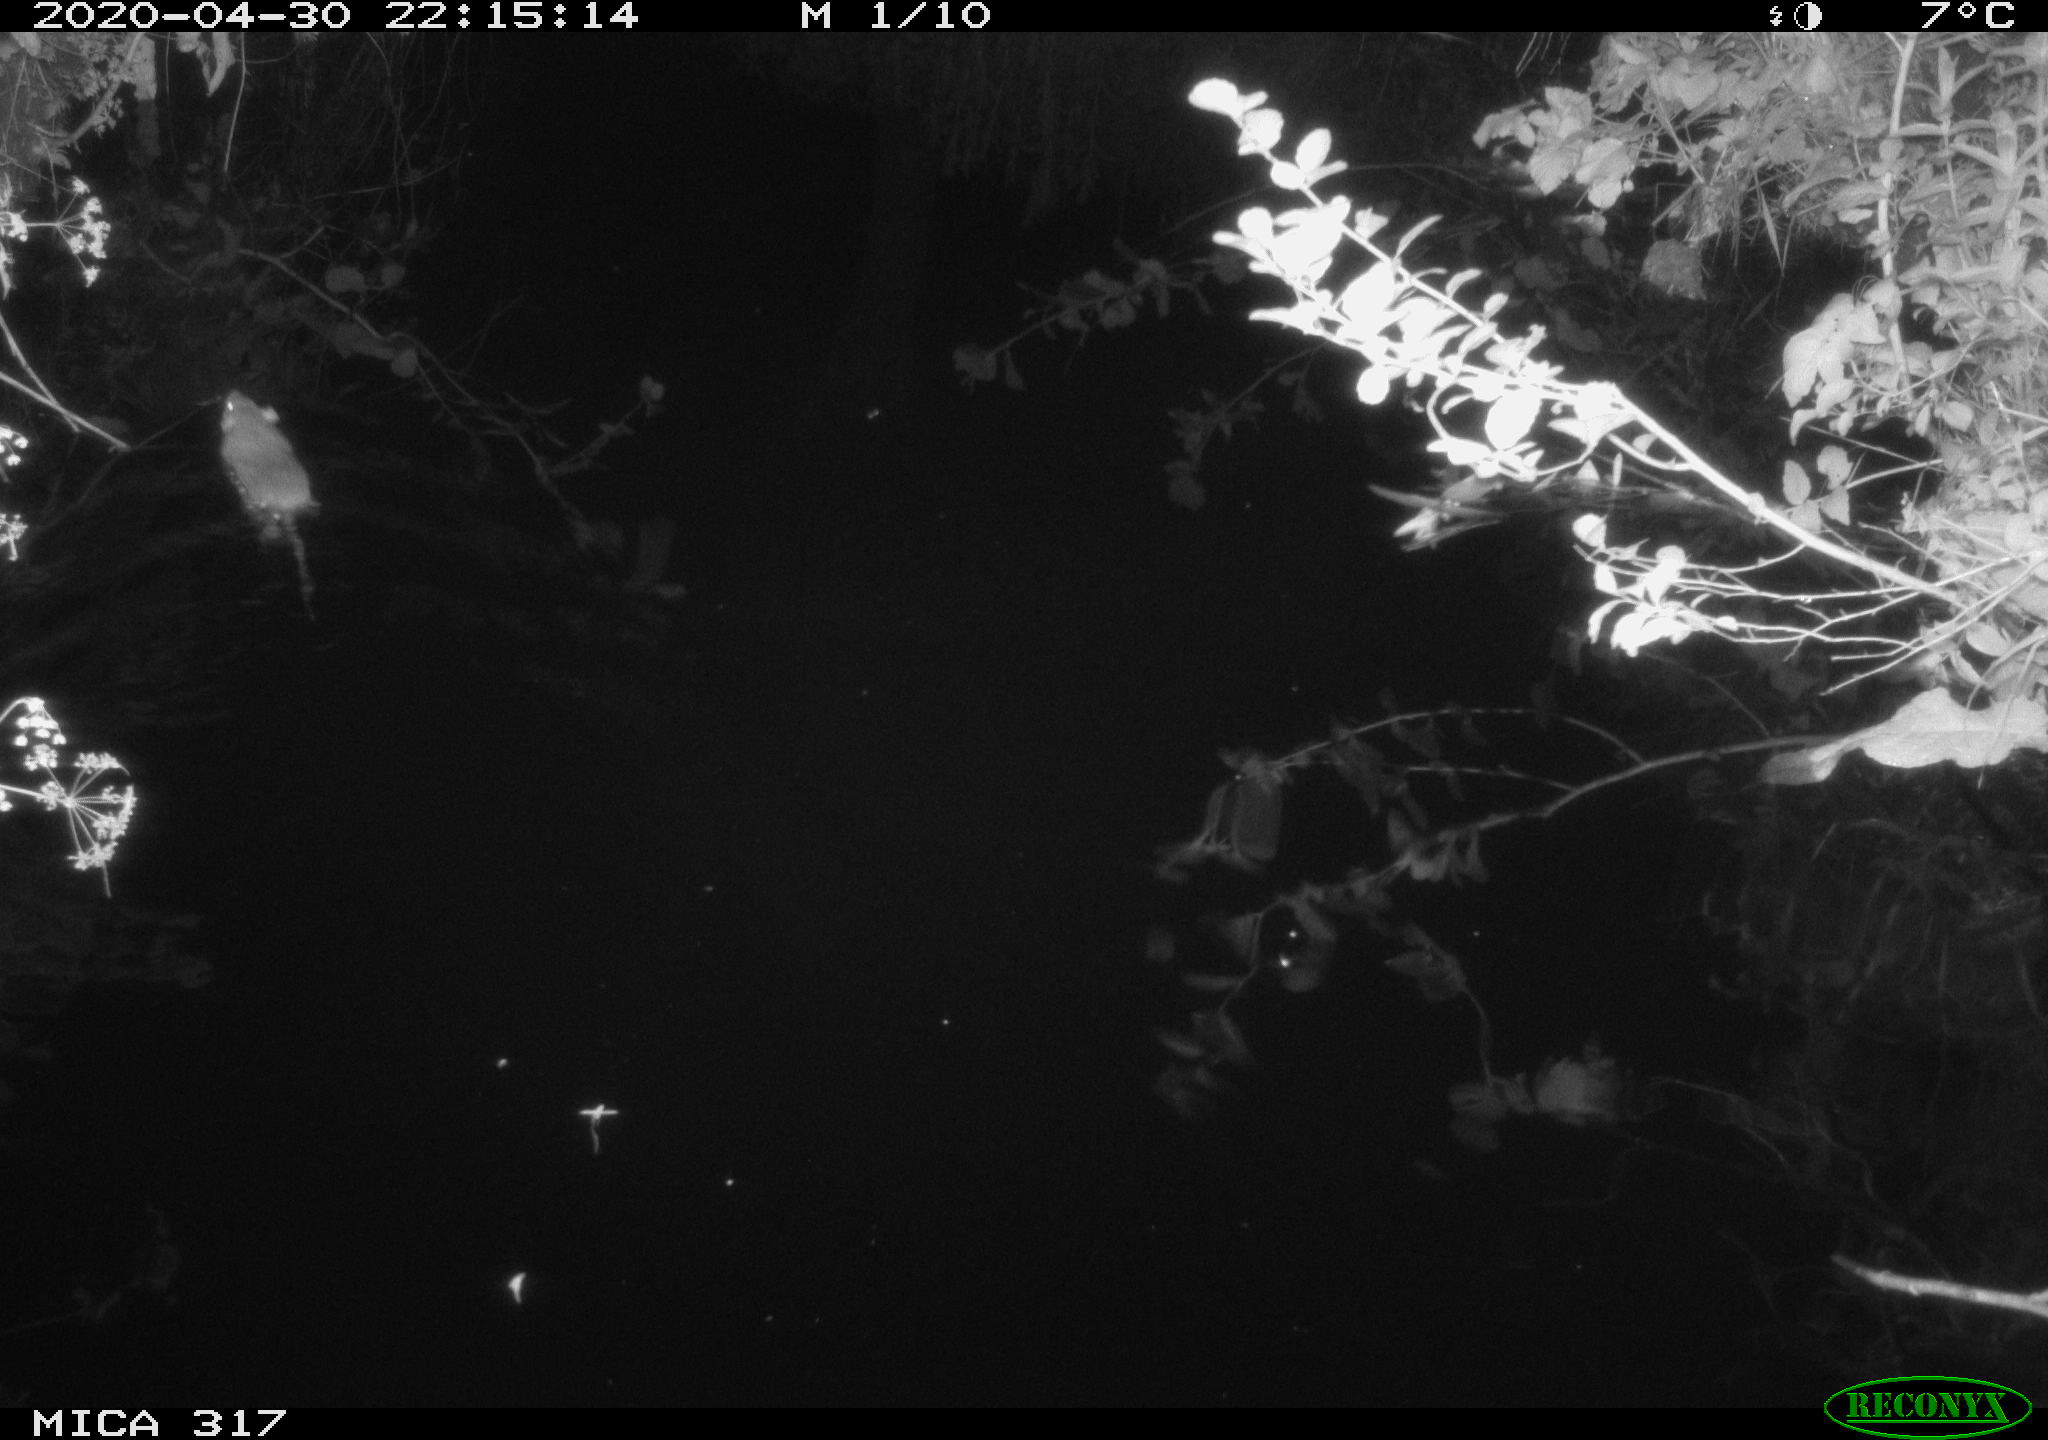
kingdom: Animalia
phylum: Chordata
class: Mammalia
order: Rodentia
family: Muridae
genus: Rattus
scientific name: Rattus norvegicus
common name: Brown rat
